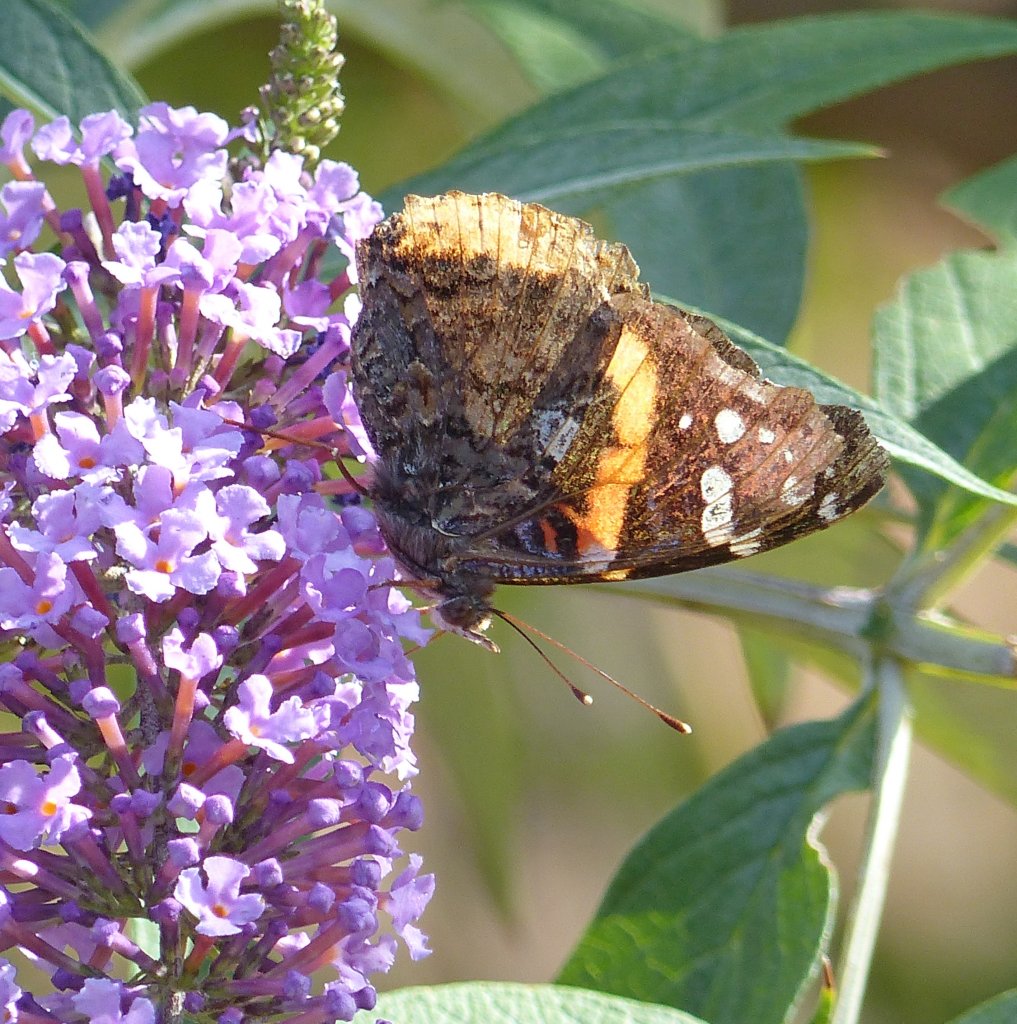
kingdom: Animalia
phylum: Arthropoda
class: Insecta
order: Lepidoptera
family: Nymphalidae
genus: Vanessa
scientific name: Vanessa atalanta
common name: Red Admiral
